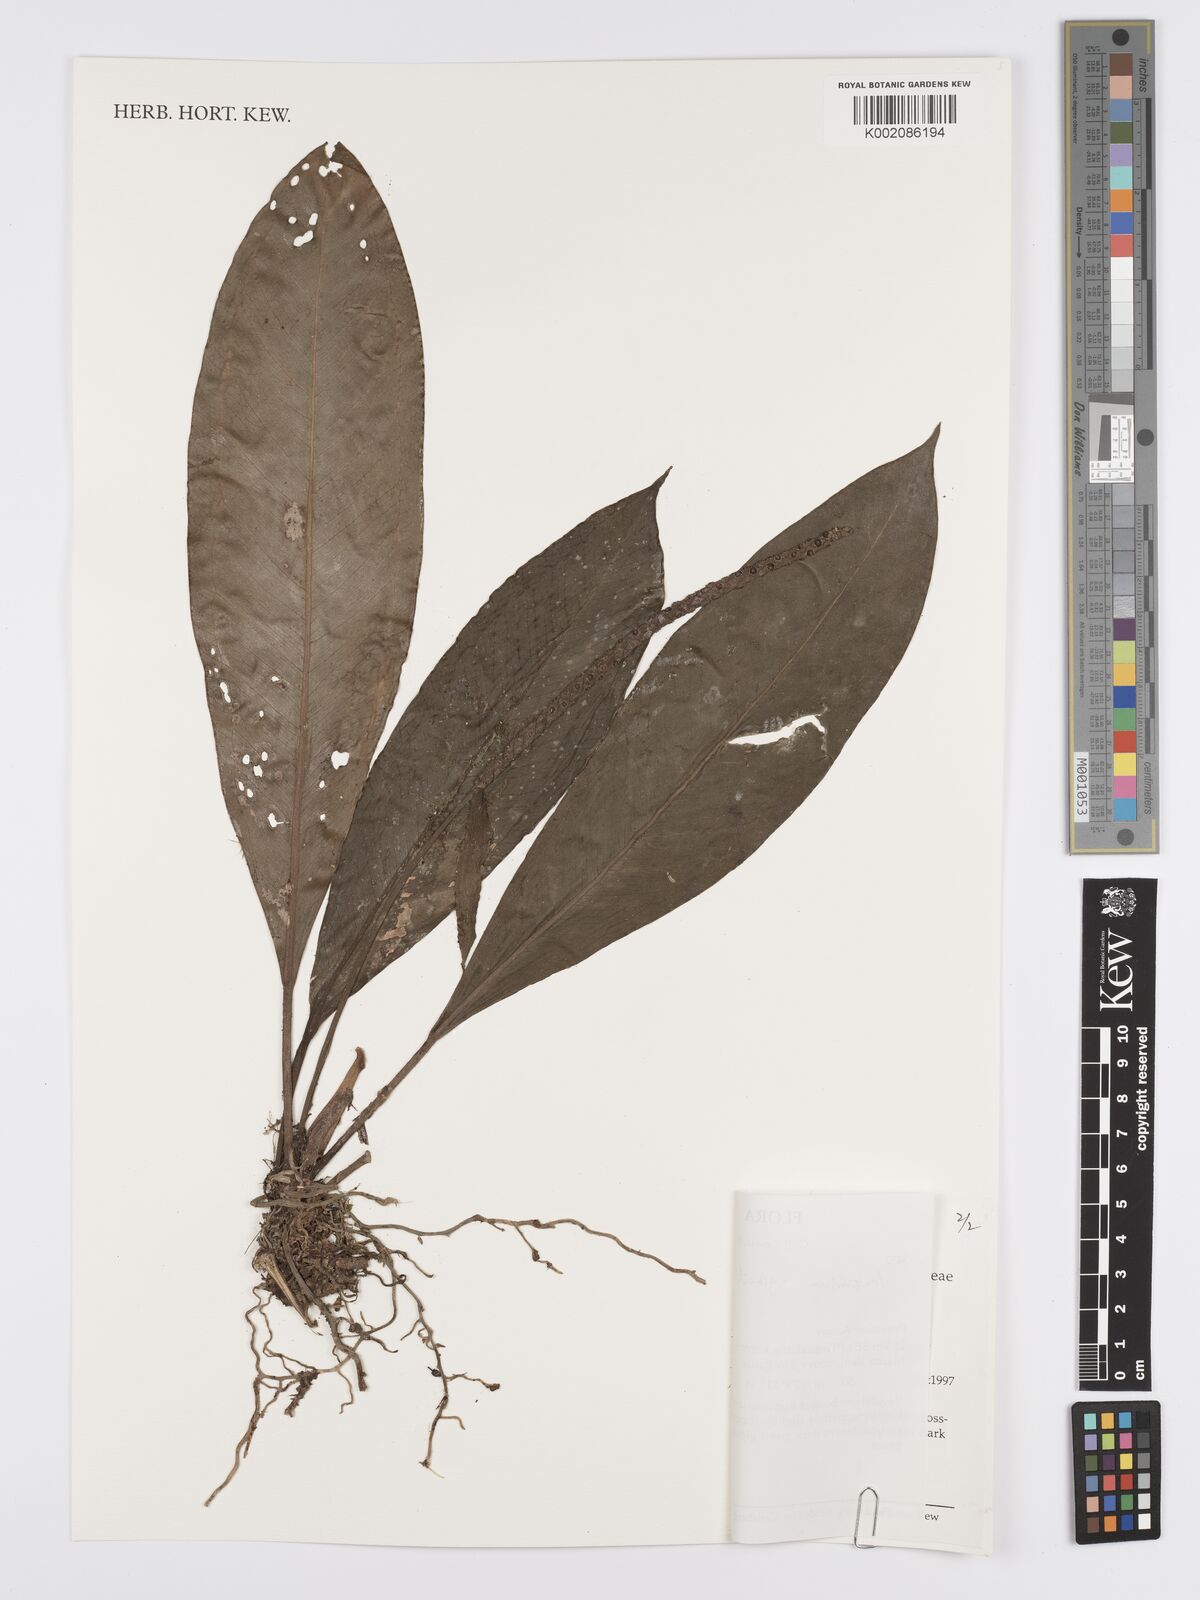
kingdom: Plantae
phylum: Tracheophyta
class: Liliopsida
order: Alismatales
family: Araceae
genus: Anthurium
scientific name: Anthurium gracile
